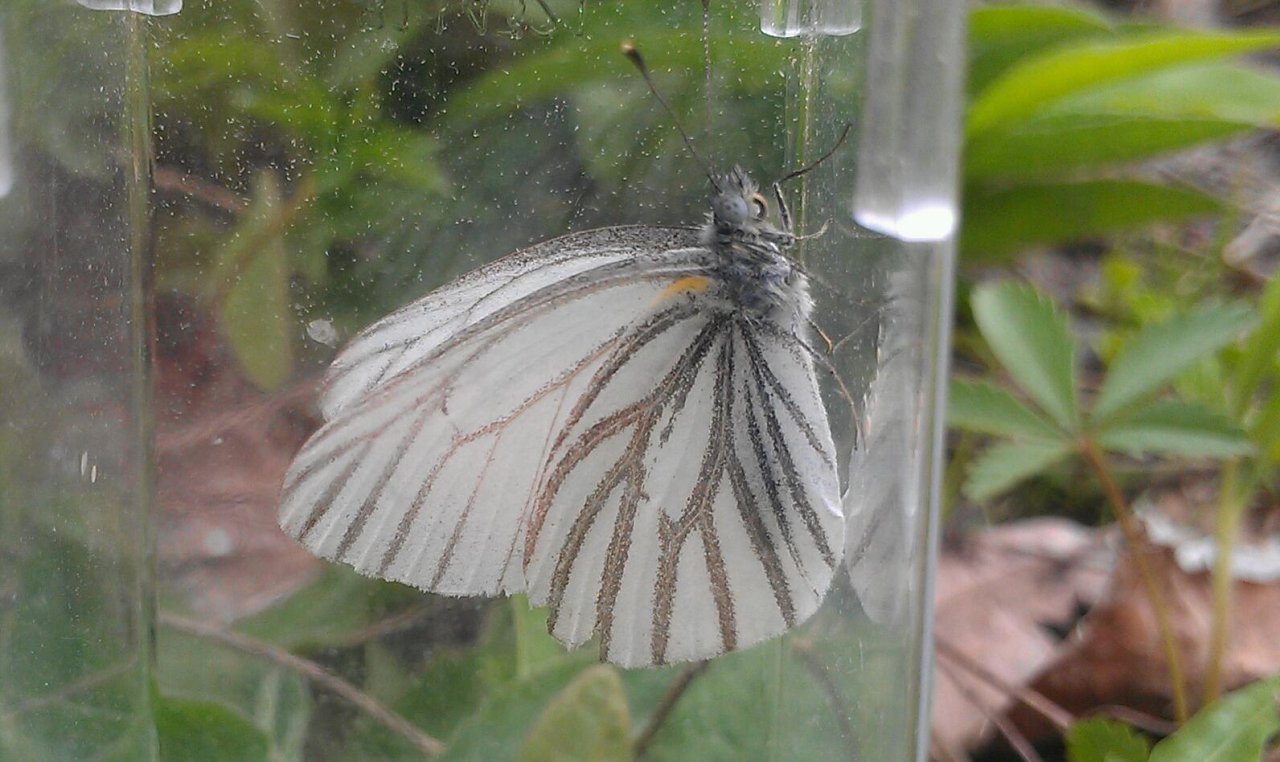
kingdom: Animalia
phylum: Arthropoda
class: Insecta
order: Lepidoptera
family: Pieridae
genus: Pieris
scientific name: Pieris oleracea
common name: Mustard White
